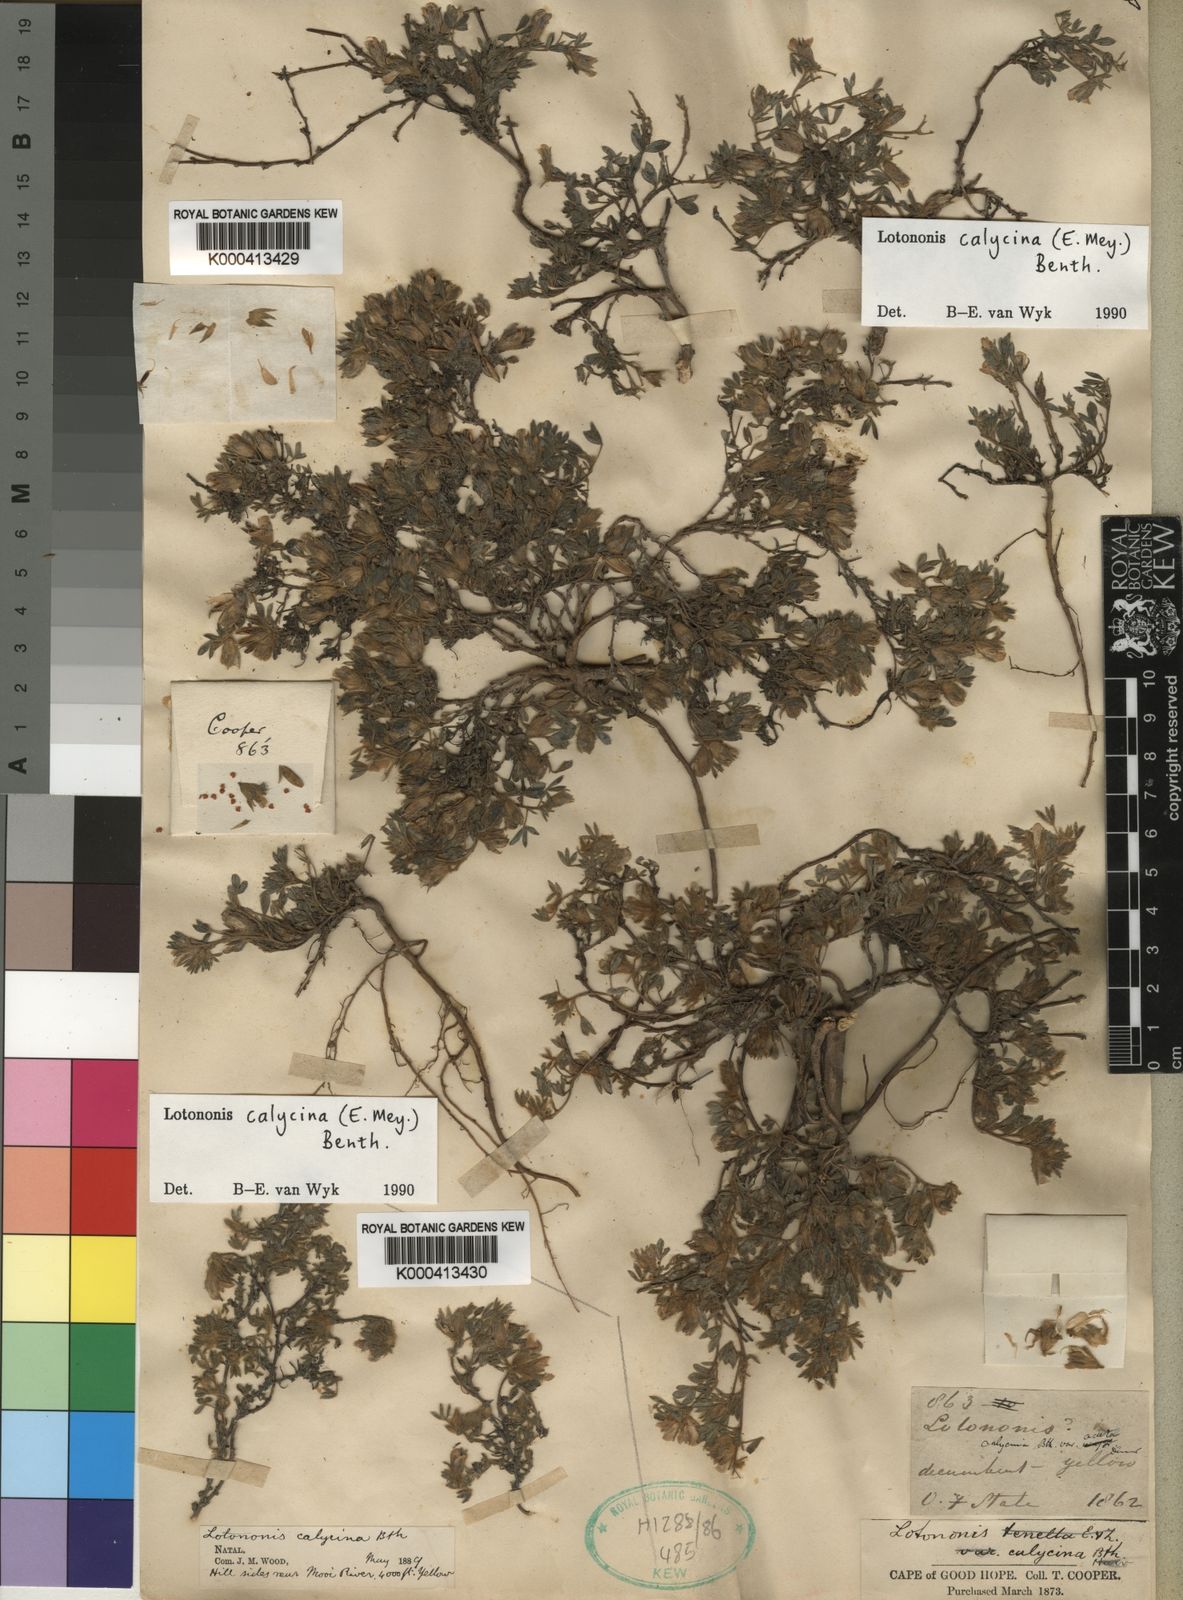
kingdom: Plantae
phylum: Tracheophyta
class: Magnoliopsida
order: Fabales
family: Fabaceae
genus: Leobordea
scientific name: Leobordea divaricata
